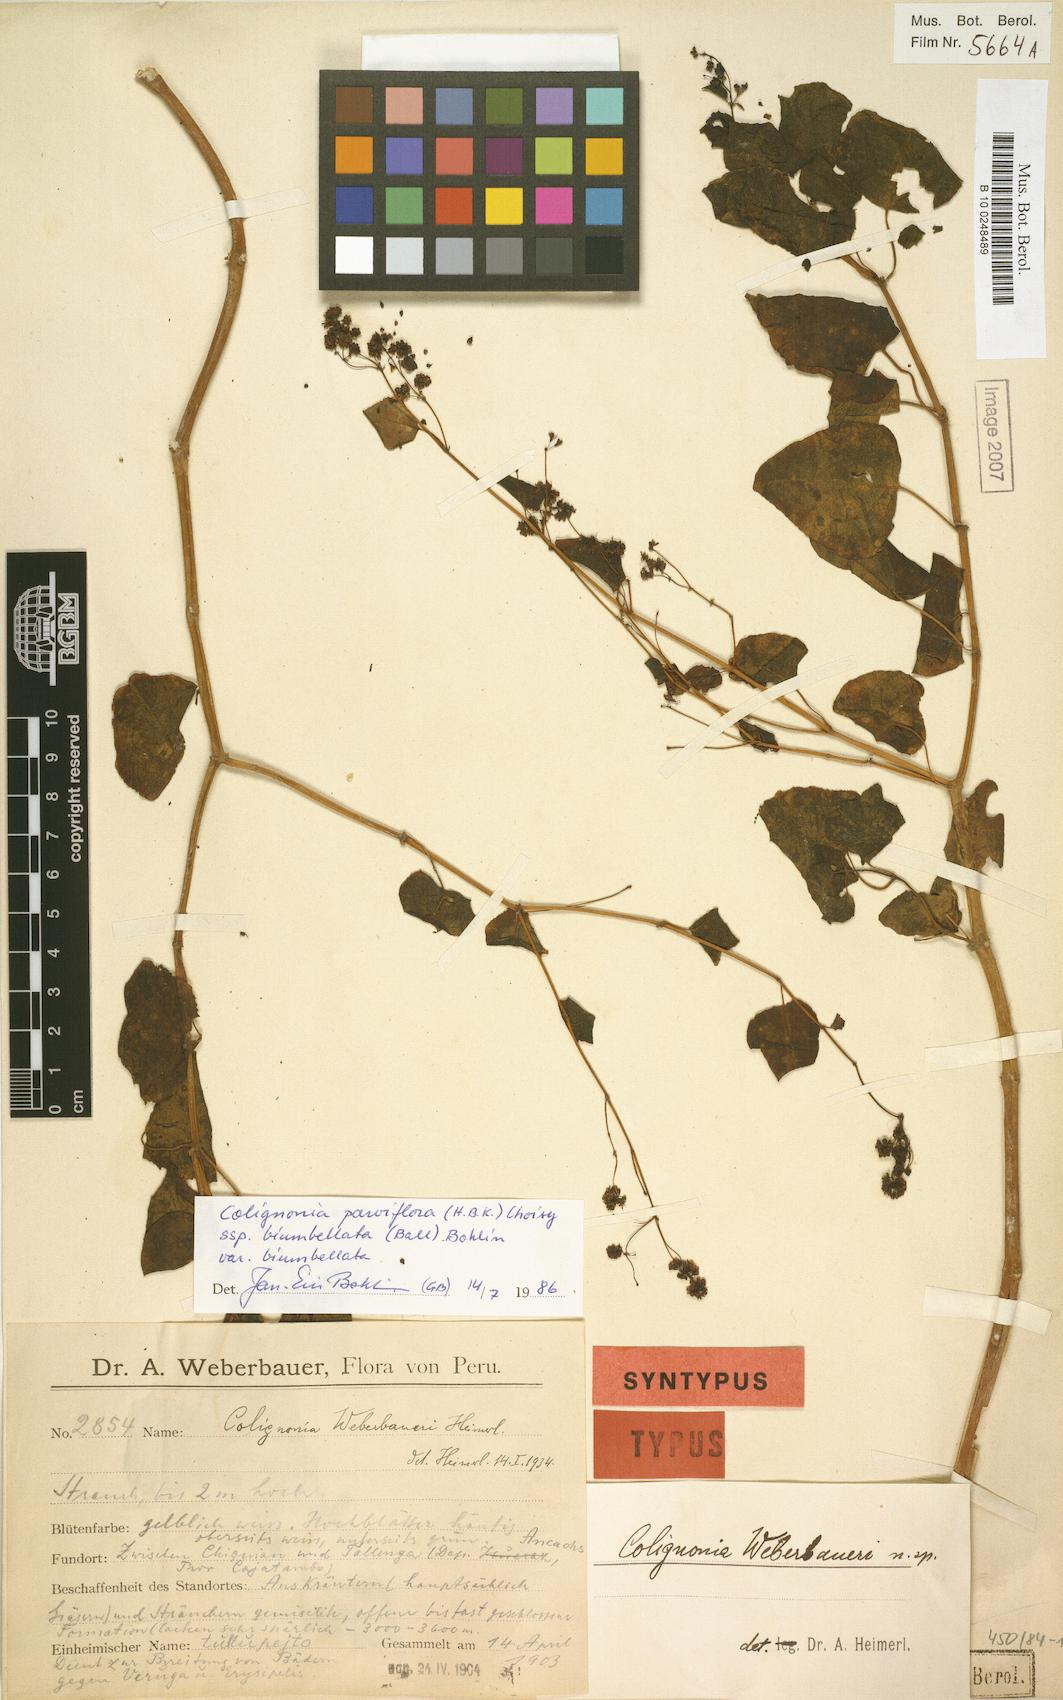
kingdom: Plantae
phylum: Tracheophyta
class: Magnoliopsida
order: Caryophyllales
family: Nyctaginaceae
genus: Colignonia
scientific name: Colignonia parviflora
